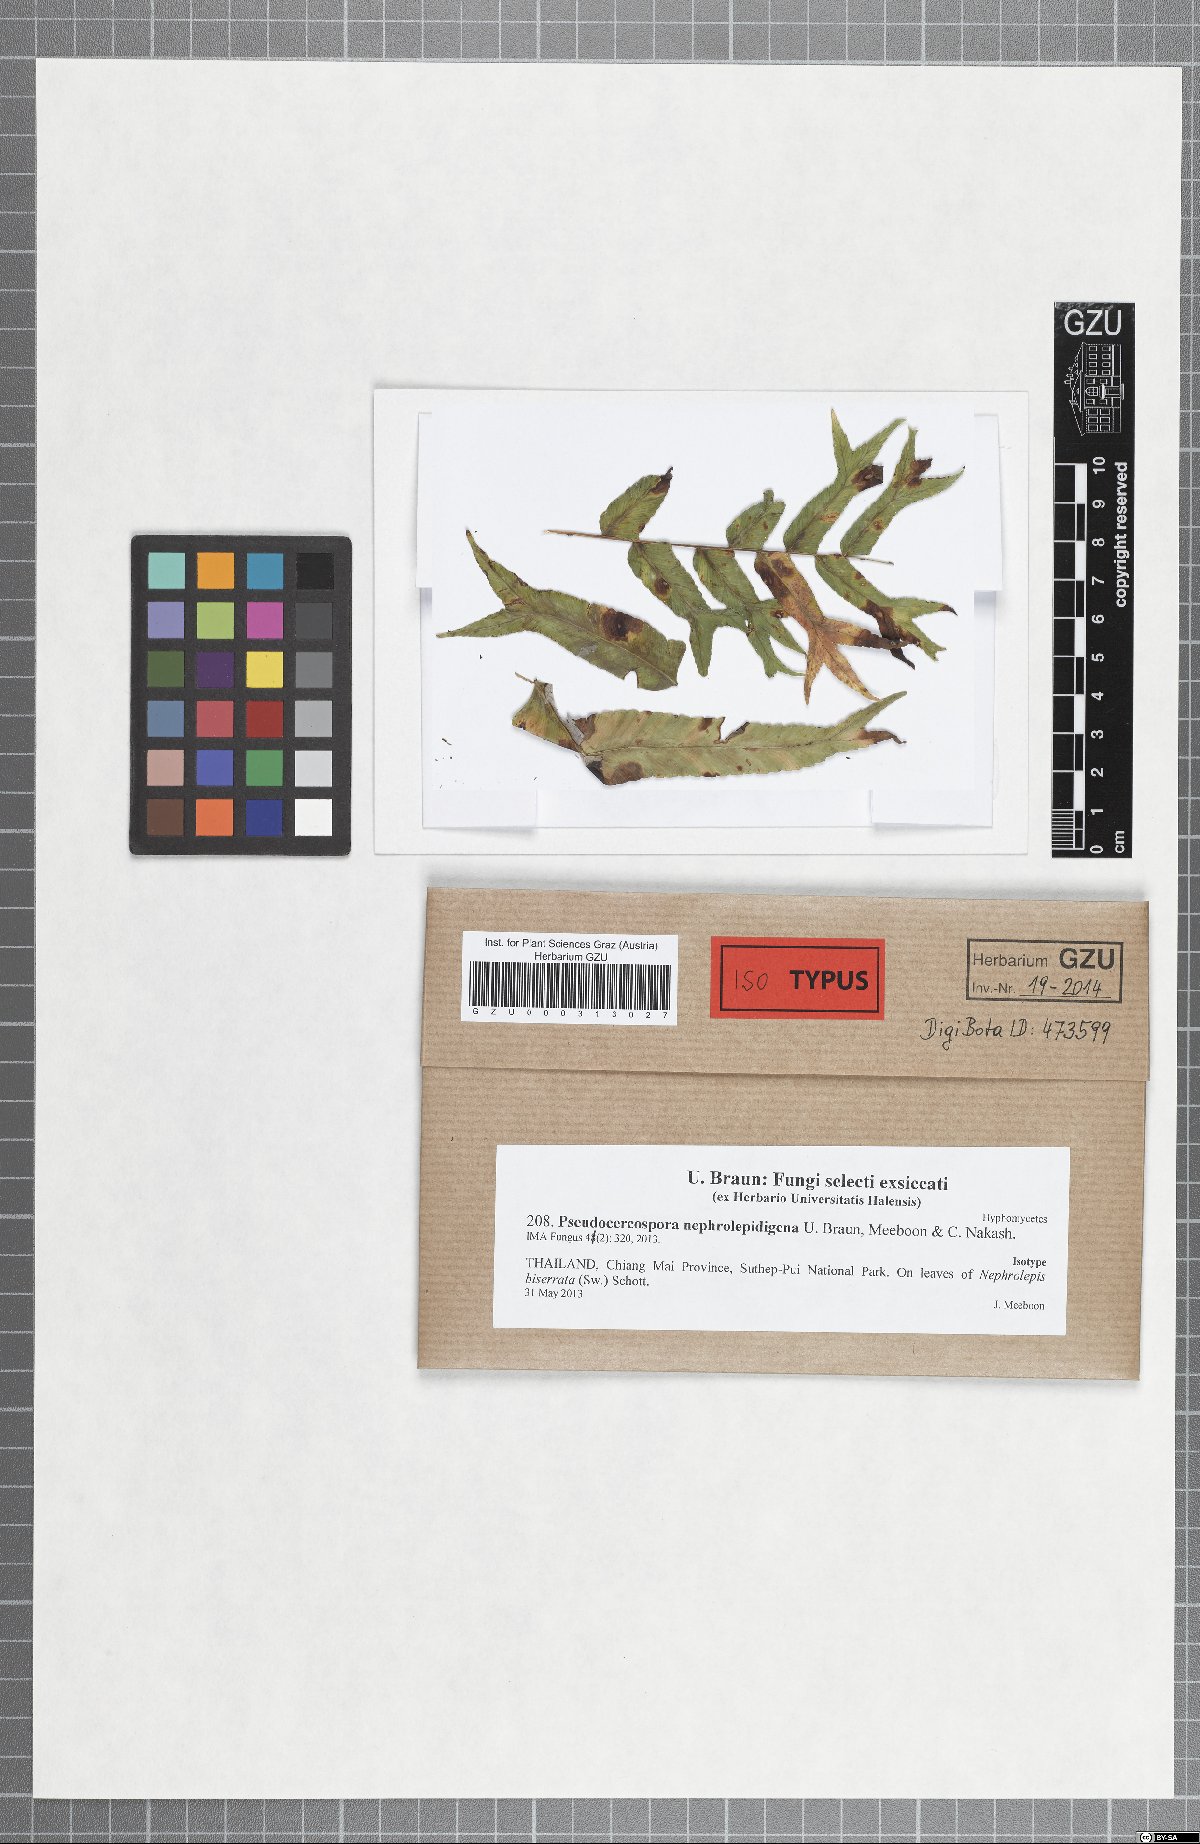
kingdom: Fungi
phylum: Ascomycota
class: Dothideomycetes
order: Mycosphaerellales
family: Mycosphaerellaceae
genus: Pseudocercospora
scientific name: Pseudocercospora nephrolepidigena
